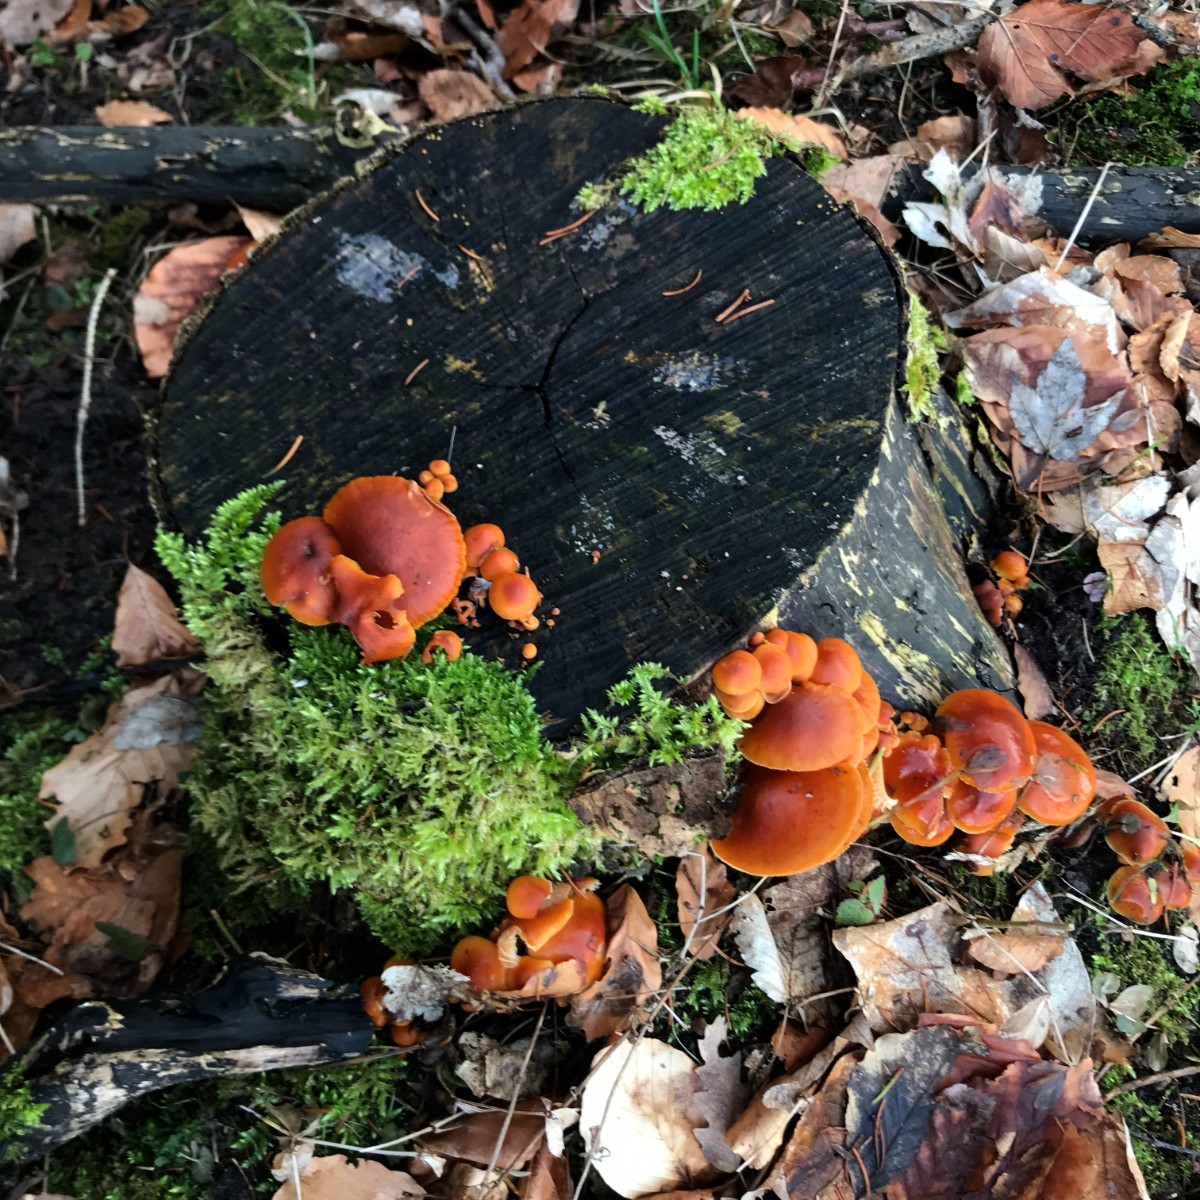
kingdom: Fungi
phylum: Basidiomycota
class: Agaricomycetes
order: Agaricales
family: Physalacriaceae
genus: Flammulina
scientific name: Flammulina velutipes
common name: gul fløjlsfod
